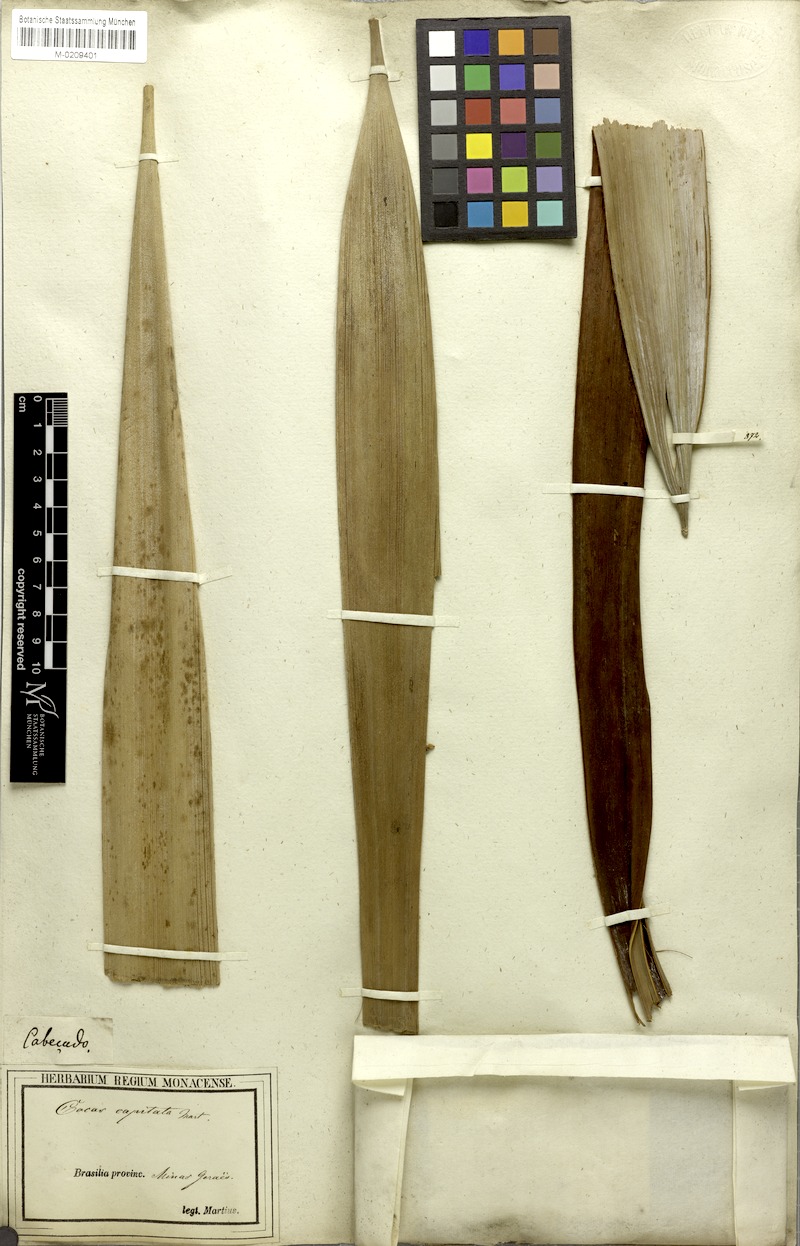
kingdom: Plantae
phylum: Tracheophyta
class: Liliopsida
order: Arecales
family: Arecaceae
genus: Butia
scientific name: Butia capitata
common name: South american jelly palm
